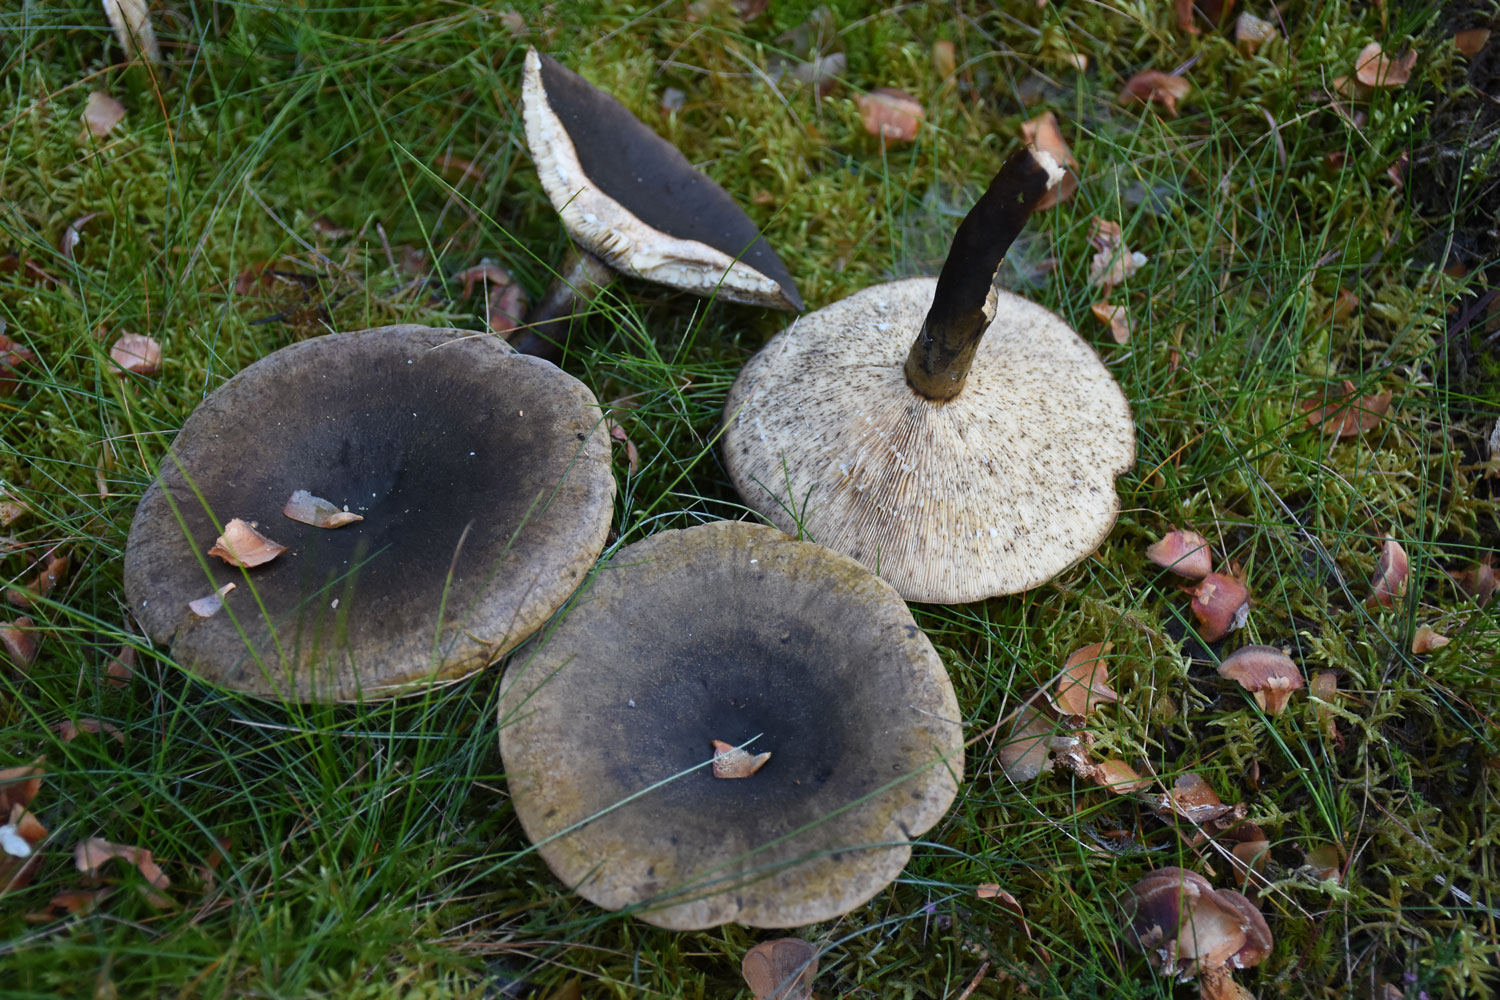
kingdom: Fungi
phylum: Basidiomycota
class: Agaricomycetes
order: Russulales
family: Russulaceae
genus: Lactarius
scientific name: Lactarius necator
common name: manddraber-mælkehat
